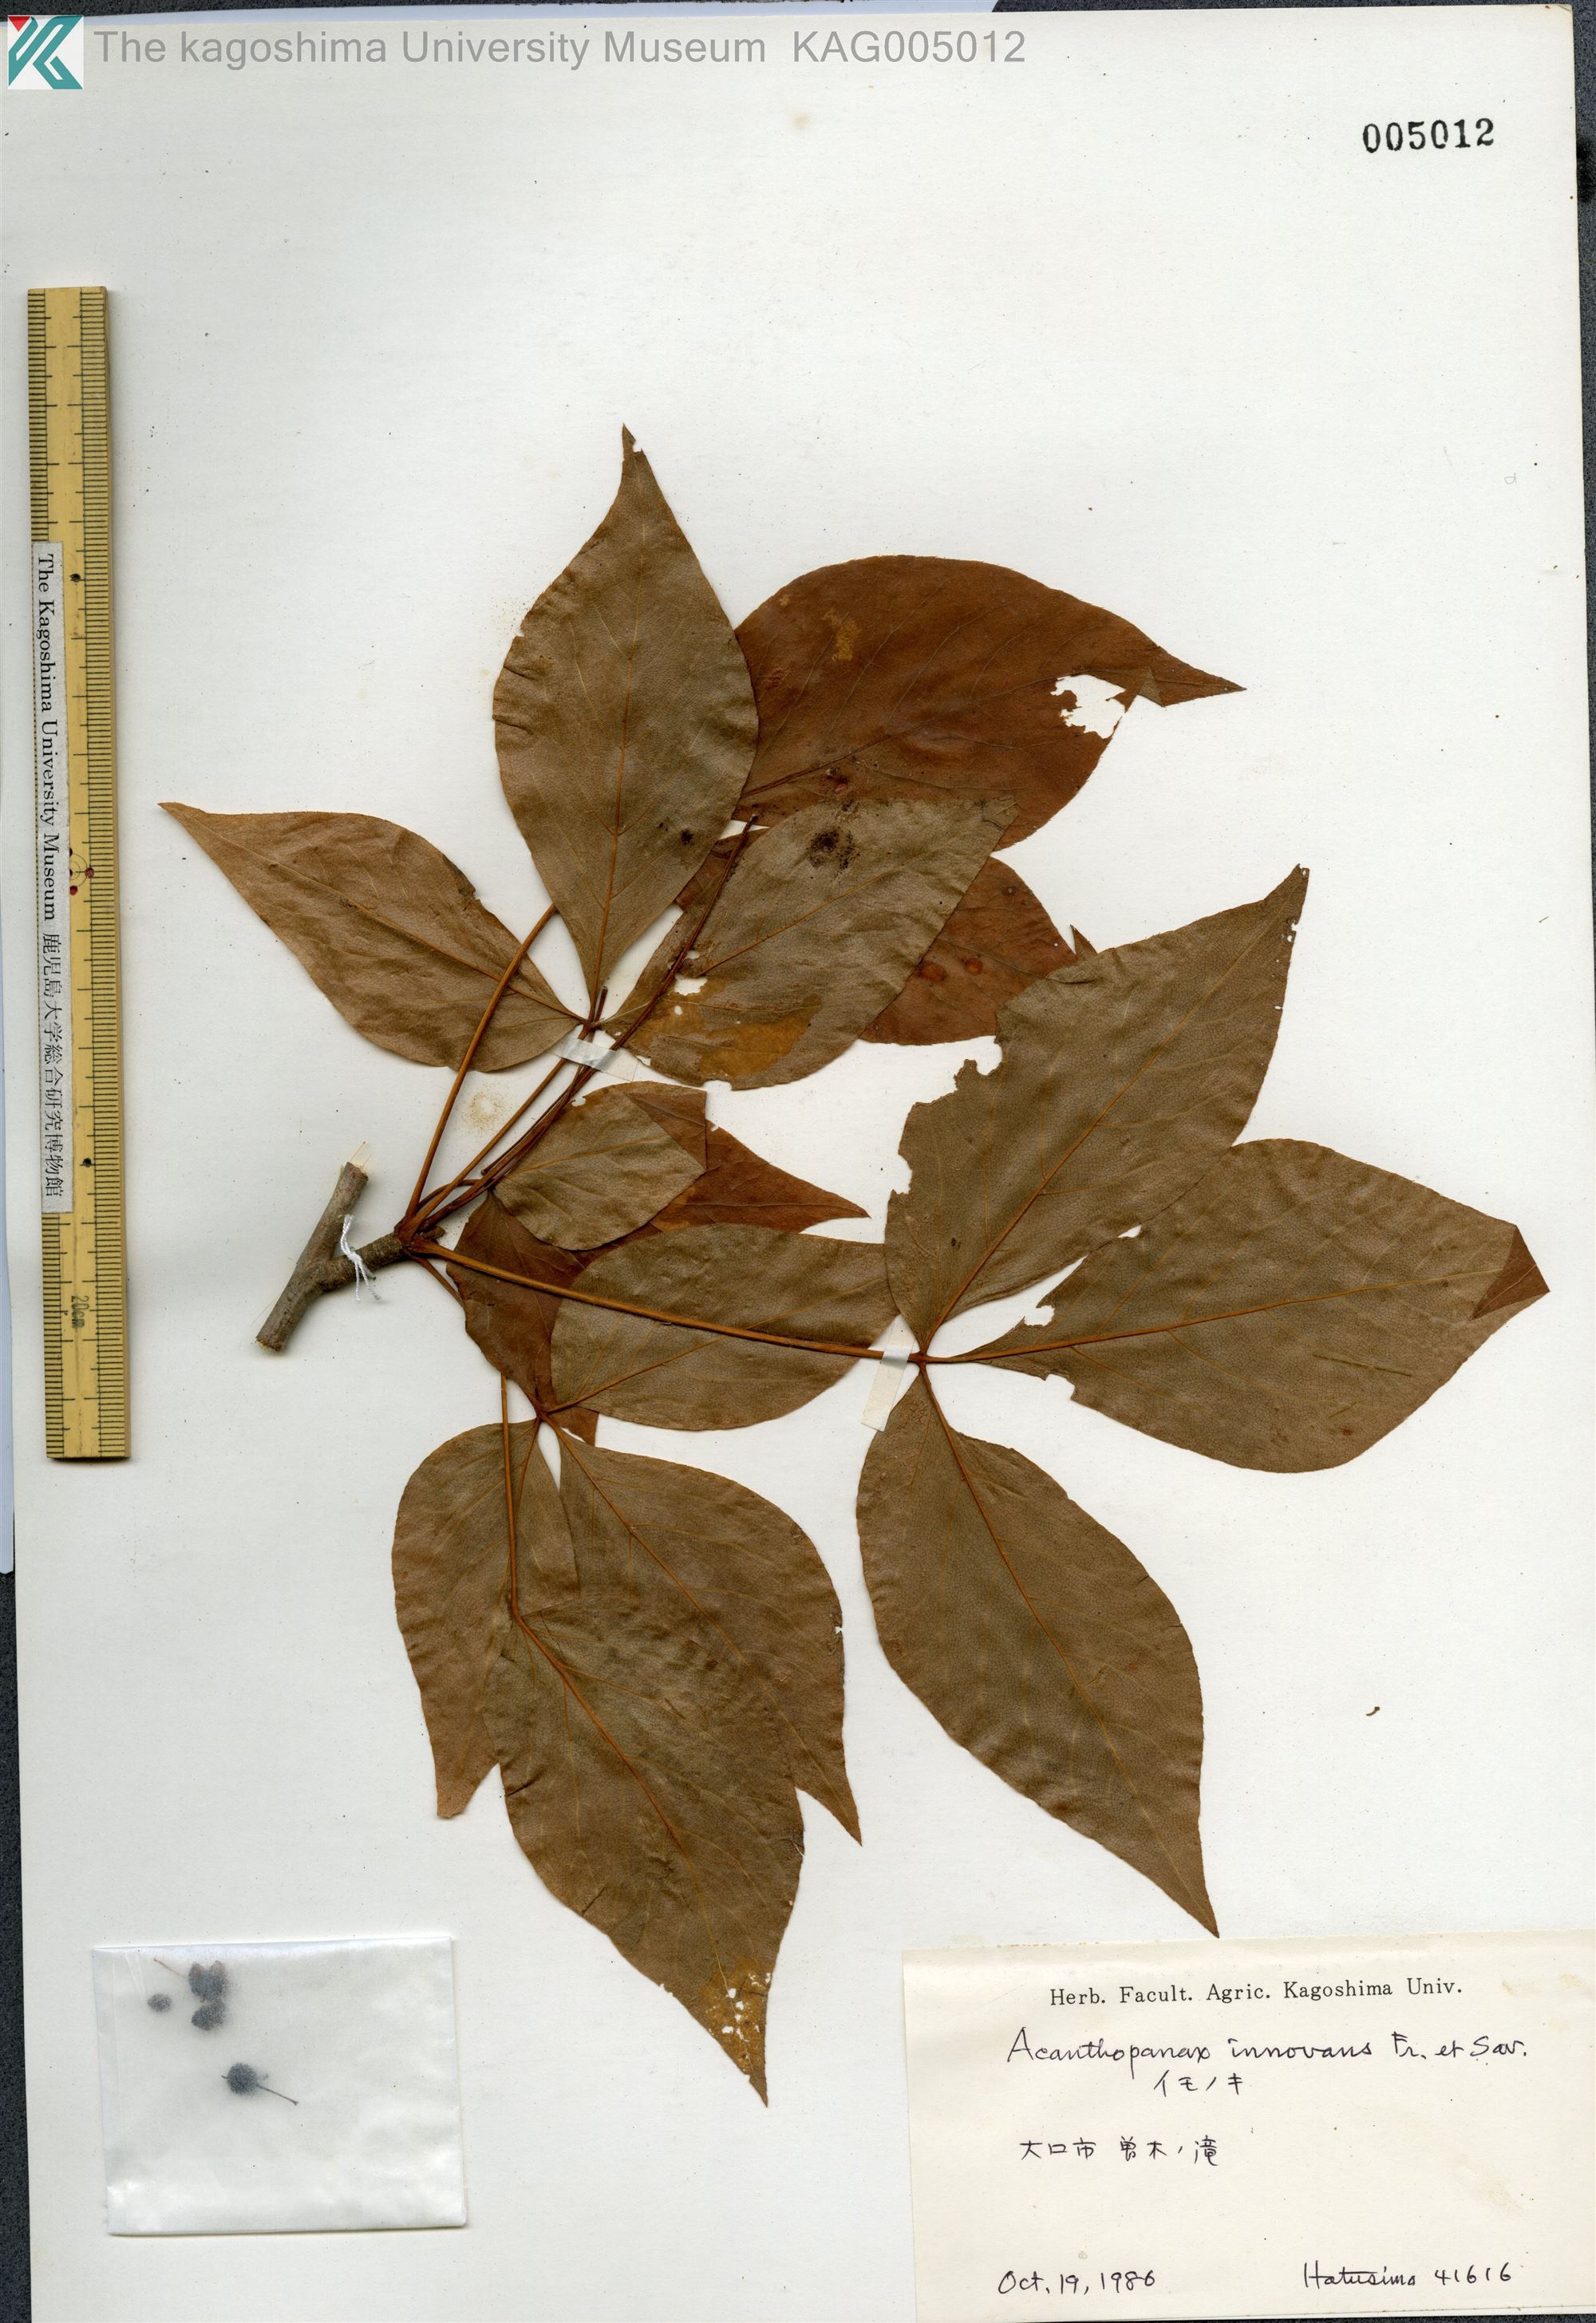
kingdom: Plantae
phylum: Tracheophyta
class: Magnoliopsida
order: Apiales
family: Araliaceae
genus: Gamblea
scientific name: Gamblea innovans
